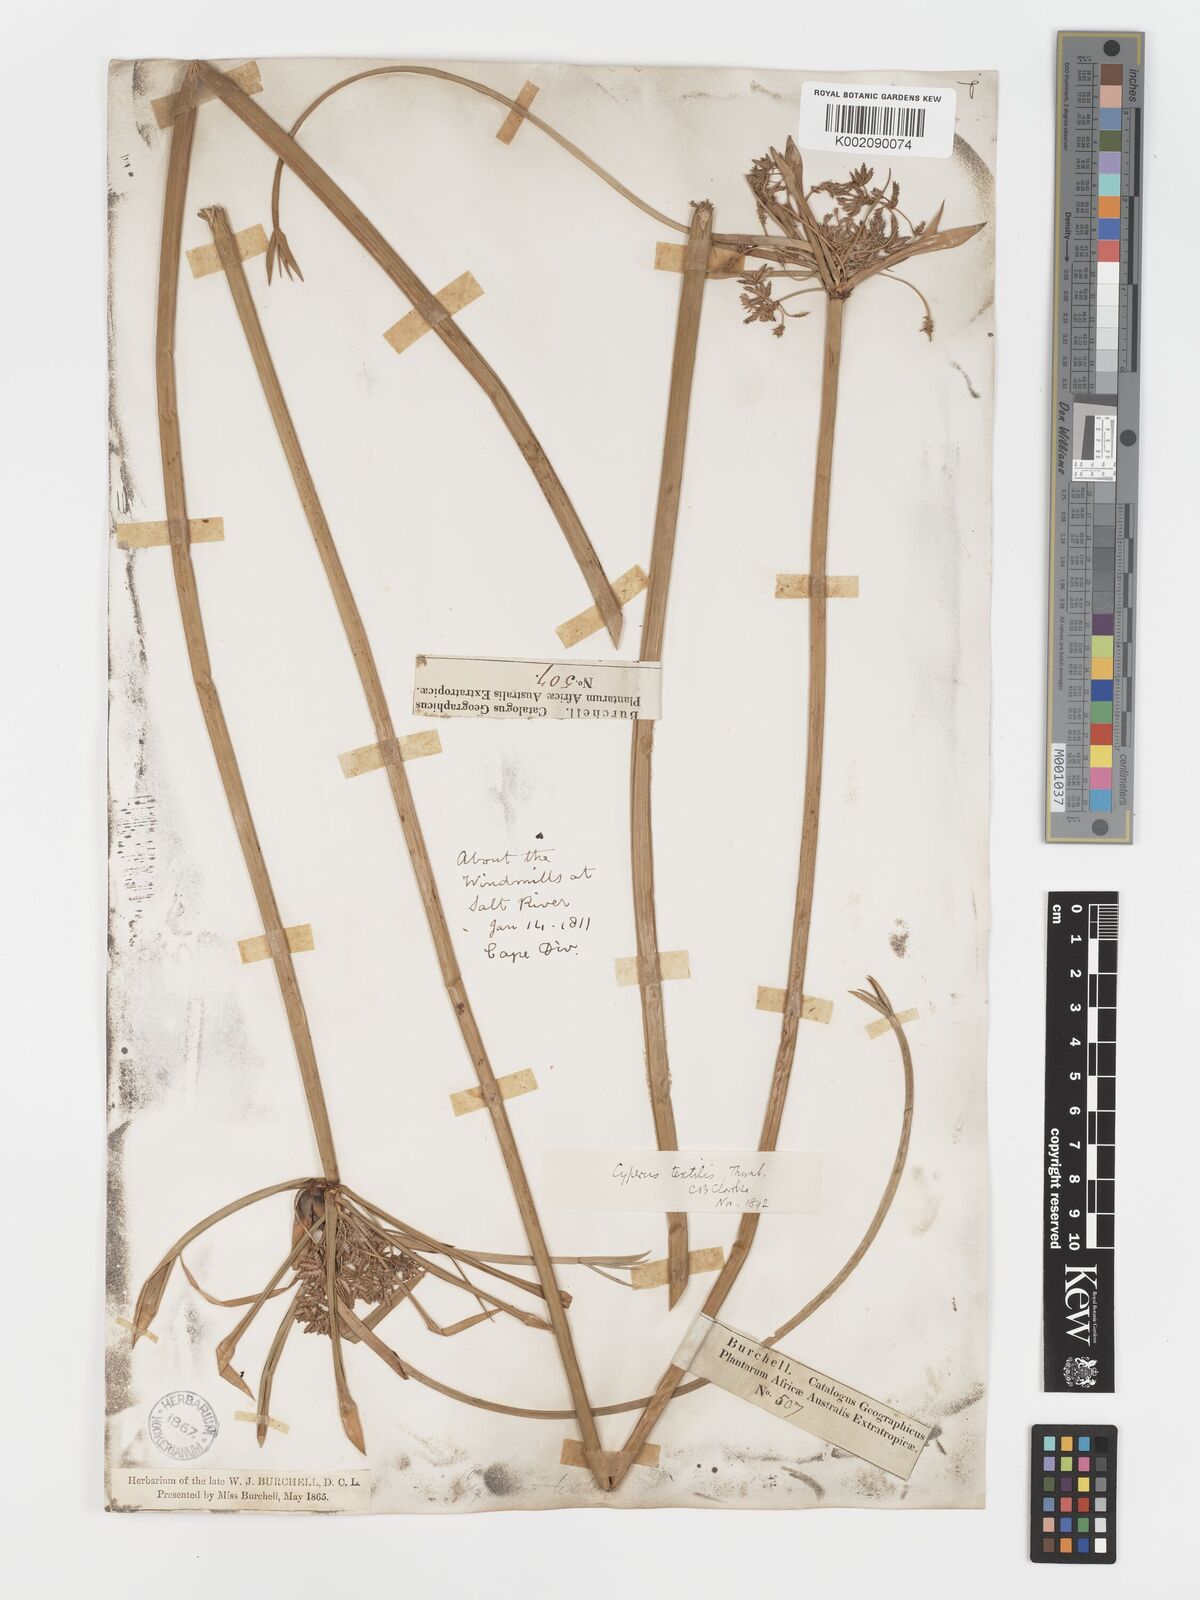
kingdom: Plantae
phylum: Tracheophyta
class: Liliopsida
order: Poales
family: Cyperaceae
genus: Cyperus
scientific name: Cyperus alternifolius
